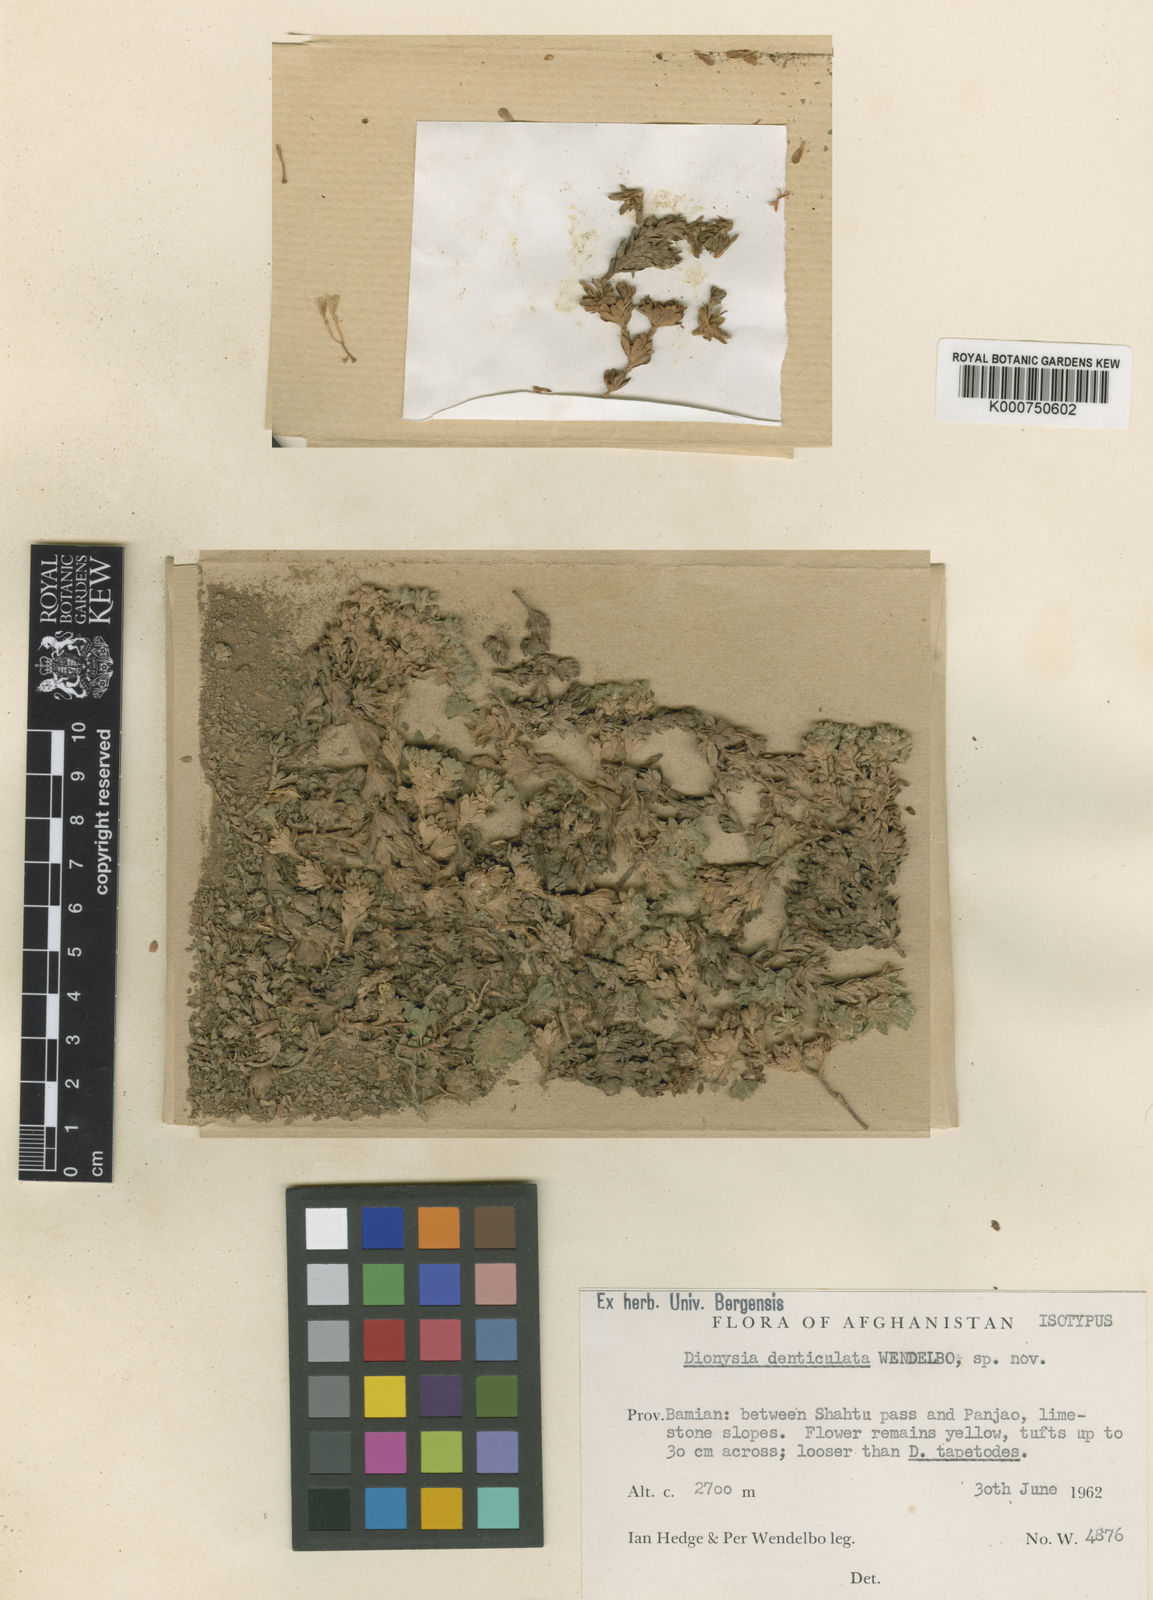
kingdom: Plantae
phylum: Tracheophyta
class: Magnoliopsida
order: Ericales
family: Primulaceae
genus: Dionysia
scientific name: Dionysia denticulata
